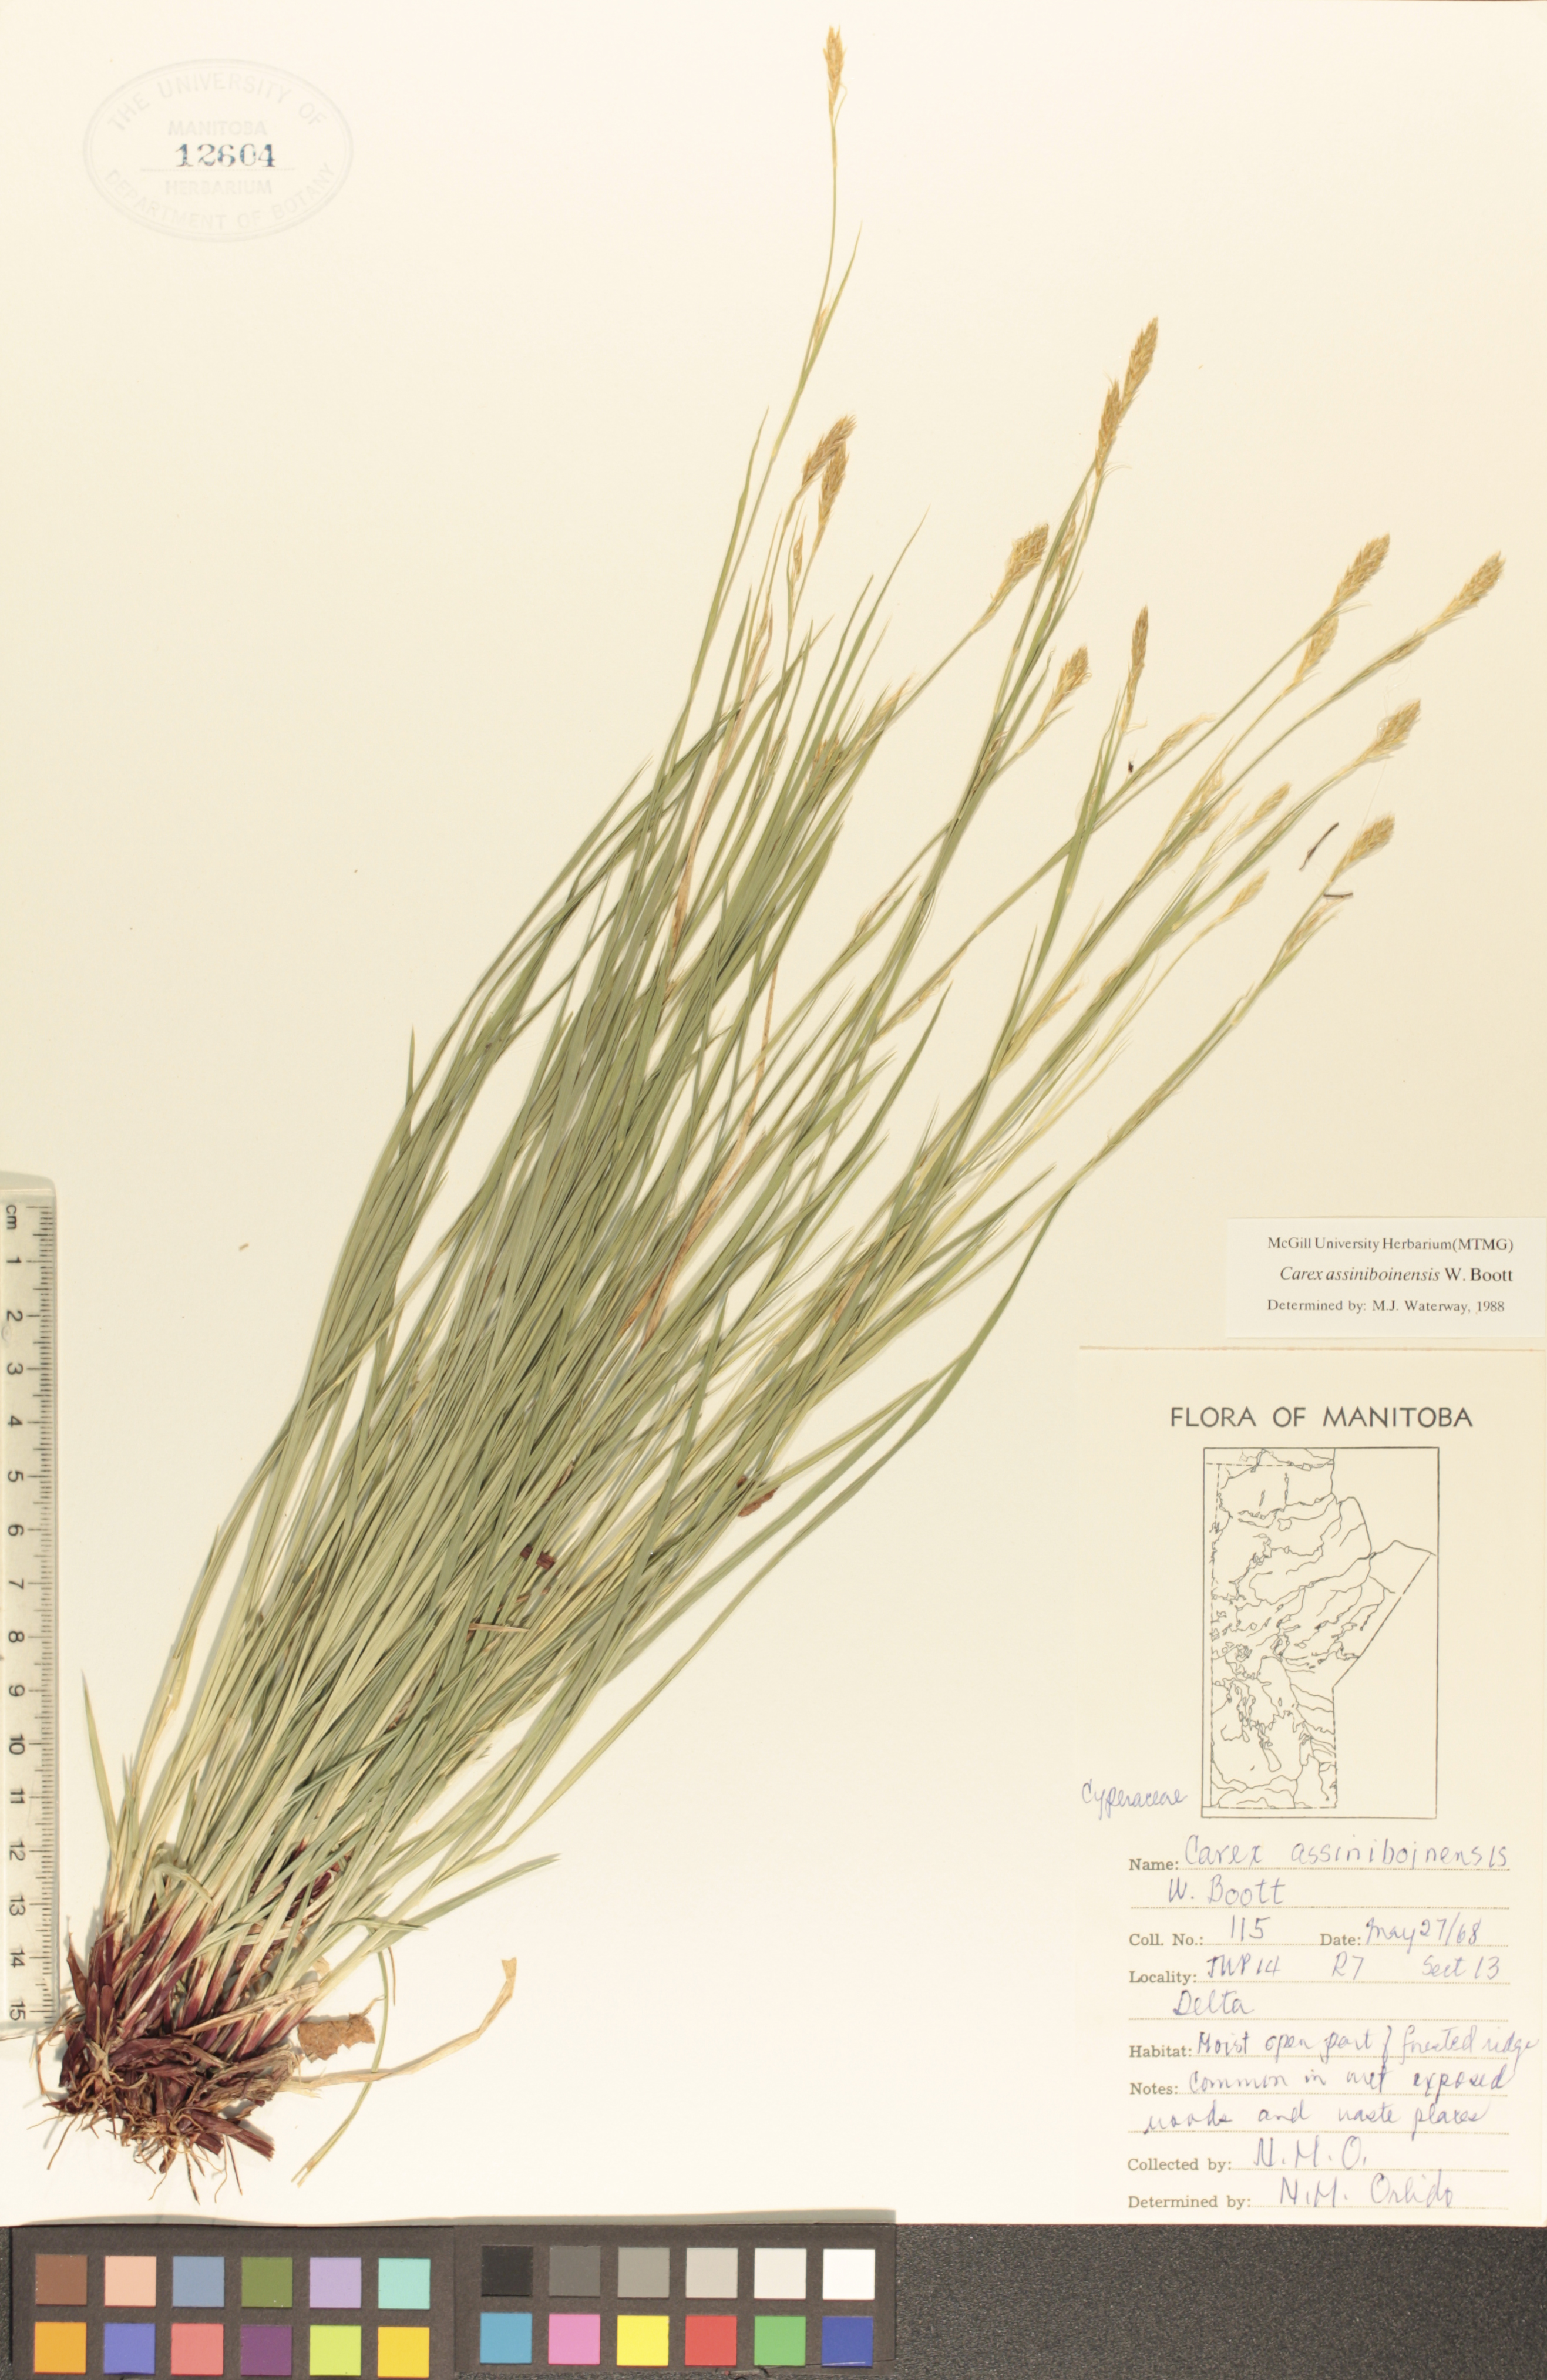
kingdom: Plantae
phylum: Tracheophyta
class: Liliopsida
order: Poales
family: Cyperaceae
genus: Carex
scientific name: Carex assiniboinensis
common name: Assiniboia sedge
